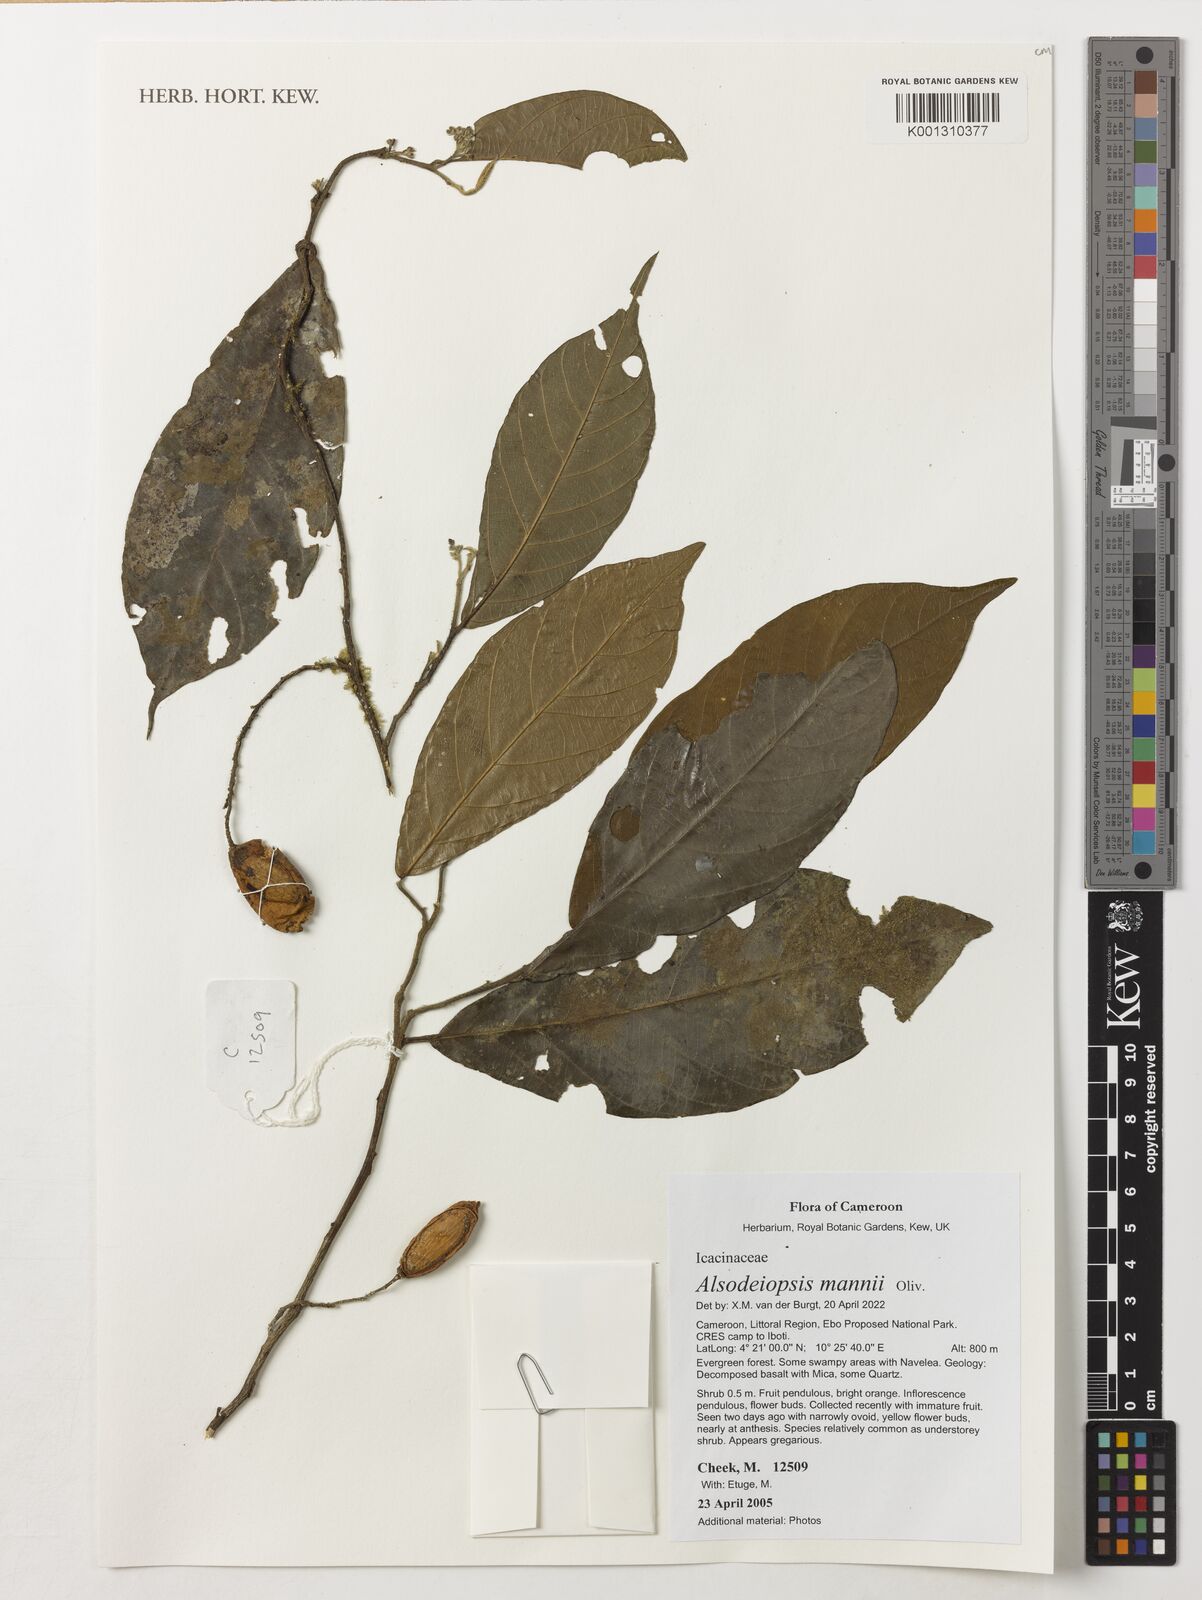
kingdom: Plantae
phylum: Tracheophyta
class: Magnoliopsida
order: Icacinales
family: Icacinaceae
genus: Alsodeiopsis
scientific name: Alsodeiopsis mannii
